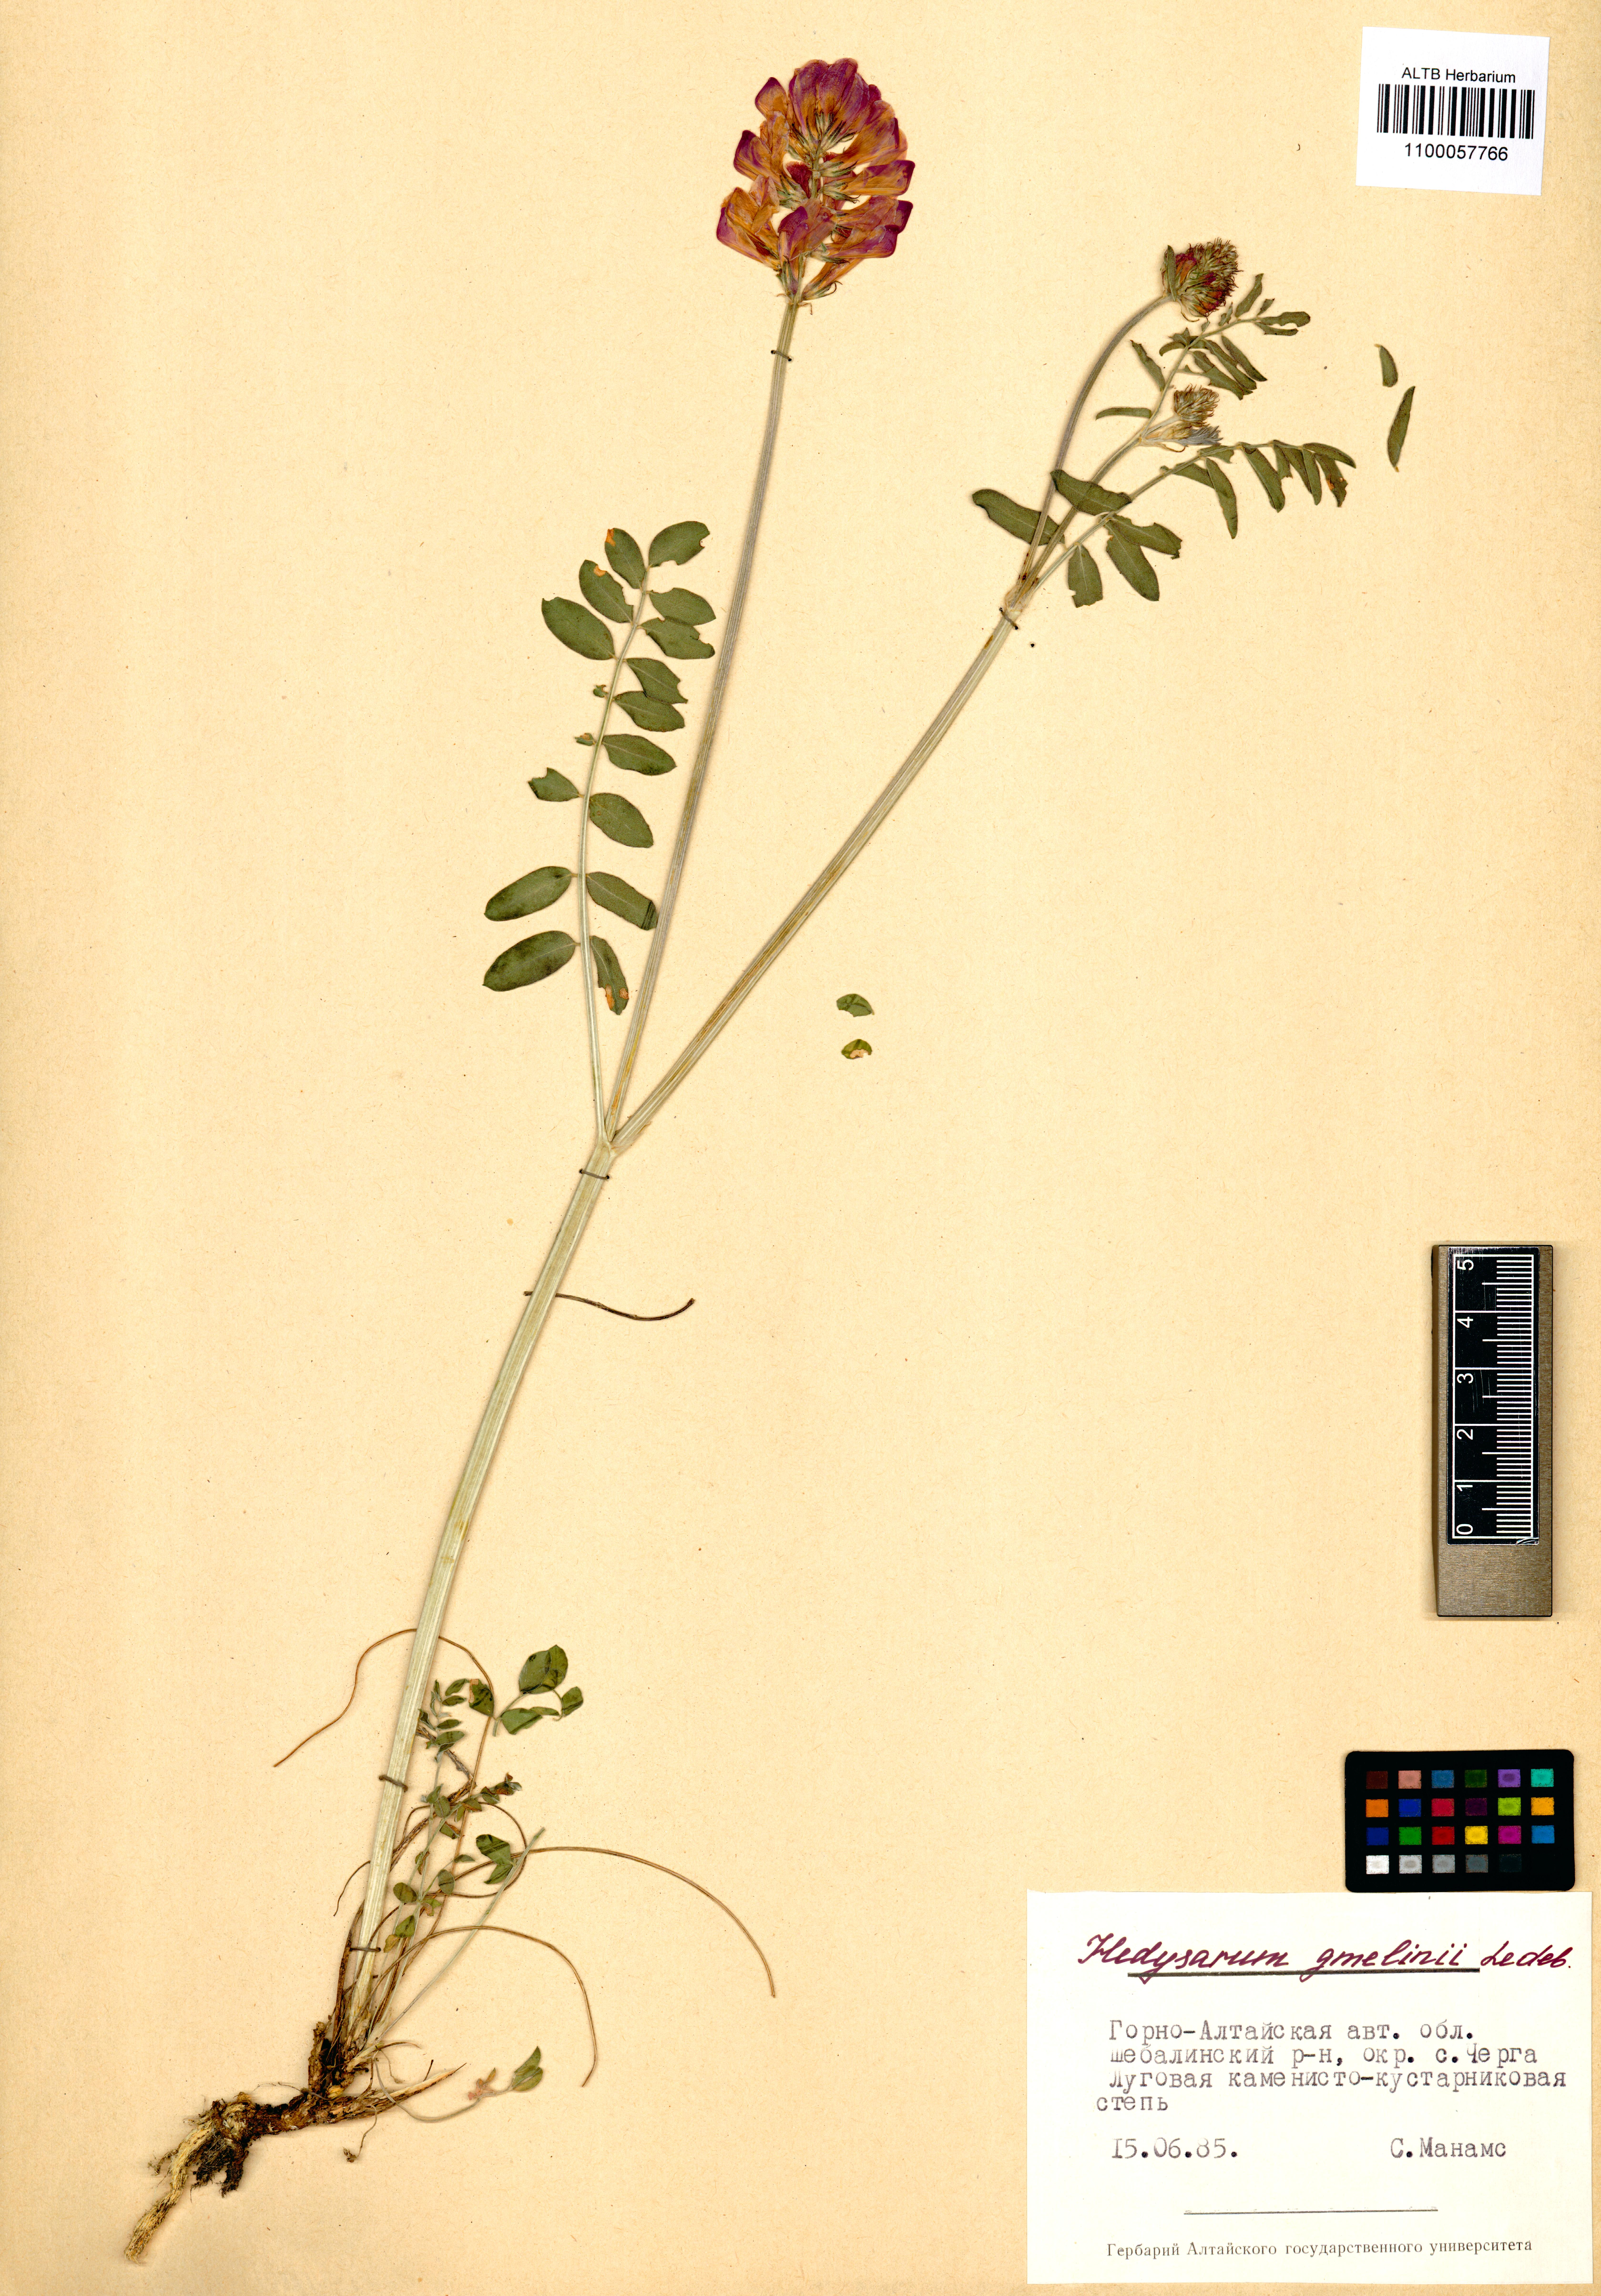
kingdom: Plantae
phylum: Tracheophyta
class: Magnoliopsida
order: Fabales
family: Fabaceae
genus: Hedysarum
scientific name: Hedysarum gmelinii
